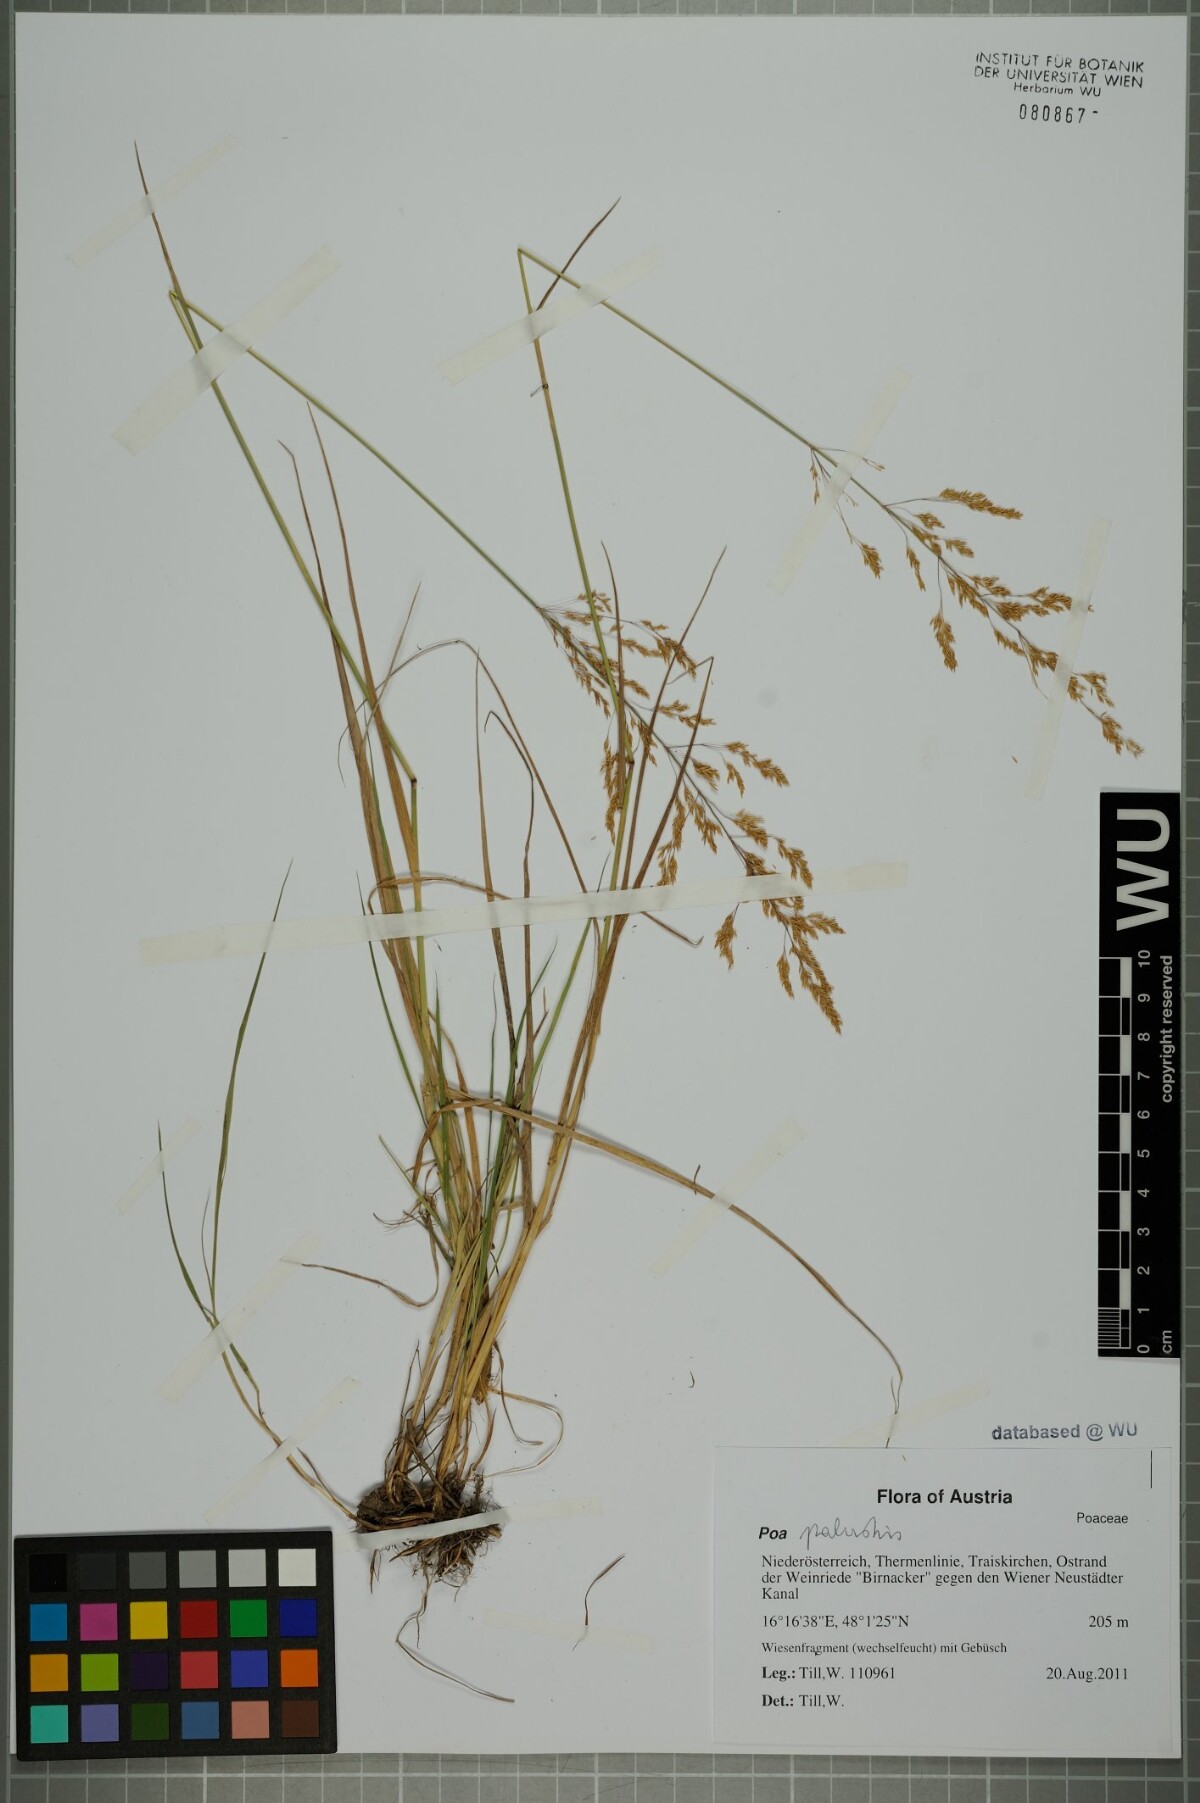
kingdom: Plantae
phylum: Tracheophyta
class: Liliopsida
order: Poales
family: Poaceae
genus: Poa
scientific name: Poa palustris
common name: Swamp meadow-grass
